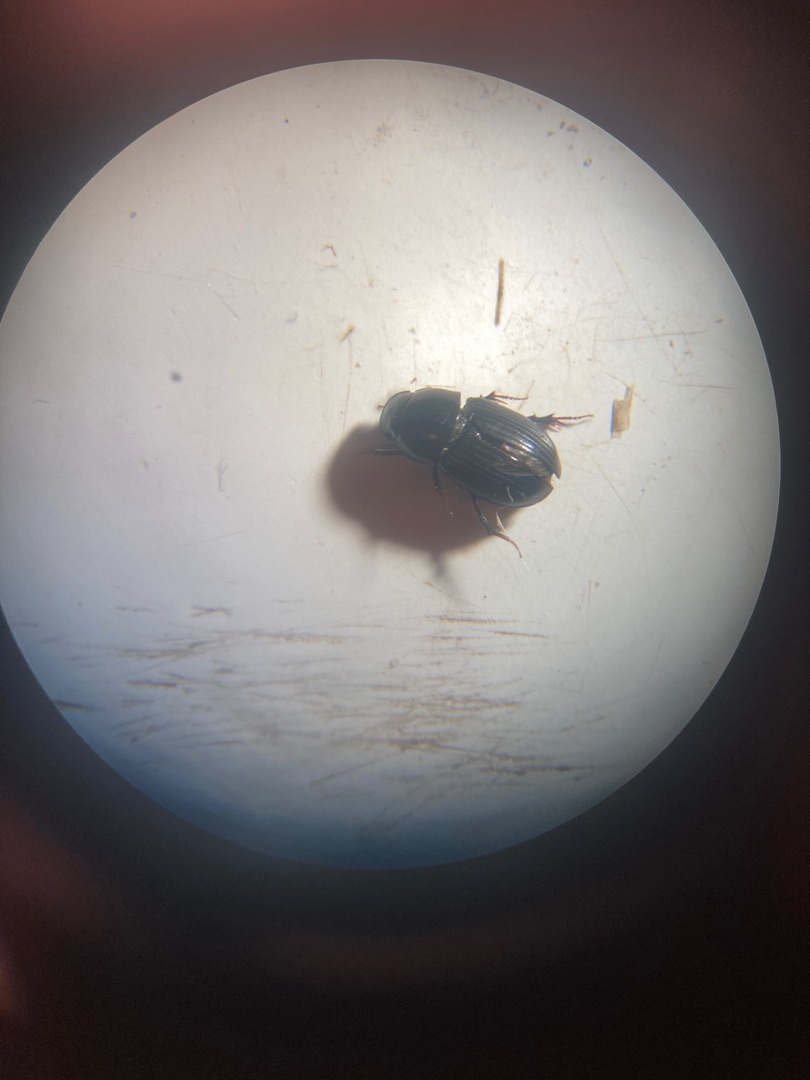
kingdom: Animalia
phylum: Arthropoda
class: Insecta
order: Coleoptera
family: Scarabaeidae
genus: Acrossus
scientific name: Acrossus depressus
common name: Flad møgbille
